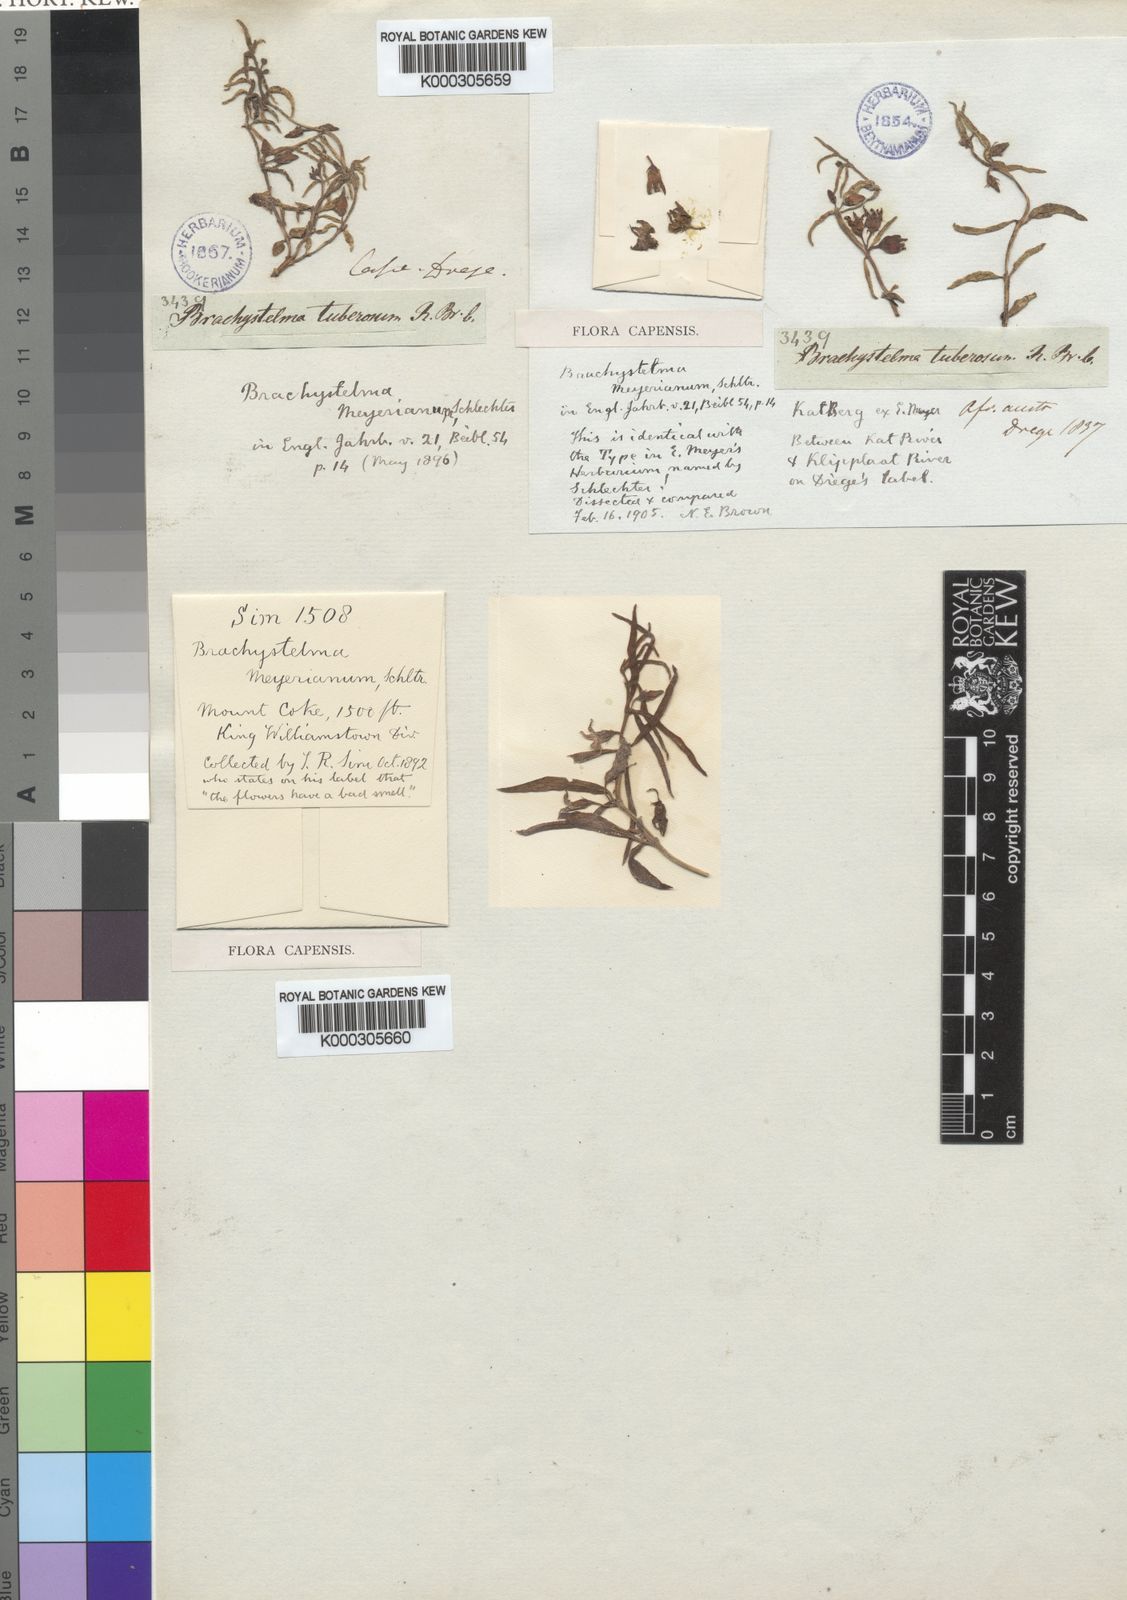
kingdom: Plantae
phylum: Tracheophyta
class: Magnoliopsida
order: Gentianales
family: Apocynaceae
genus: Ceropegia
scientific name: Ceropegia meyeriana
